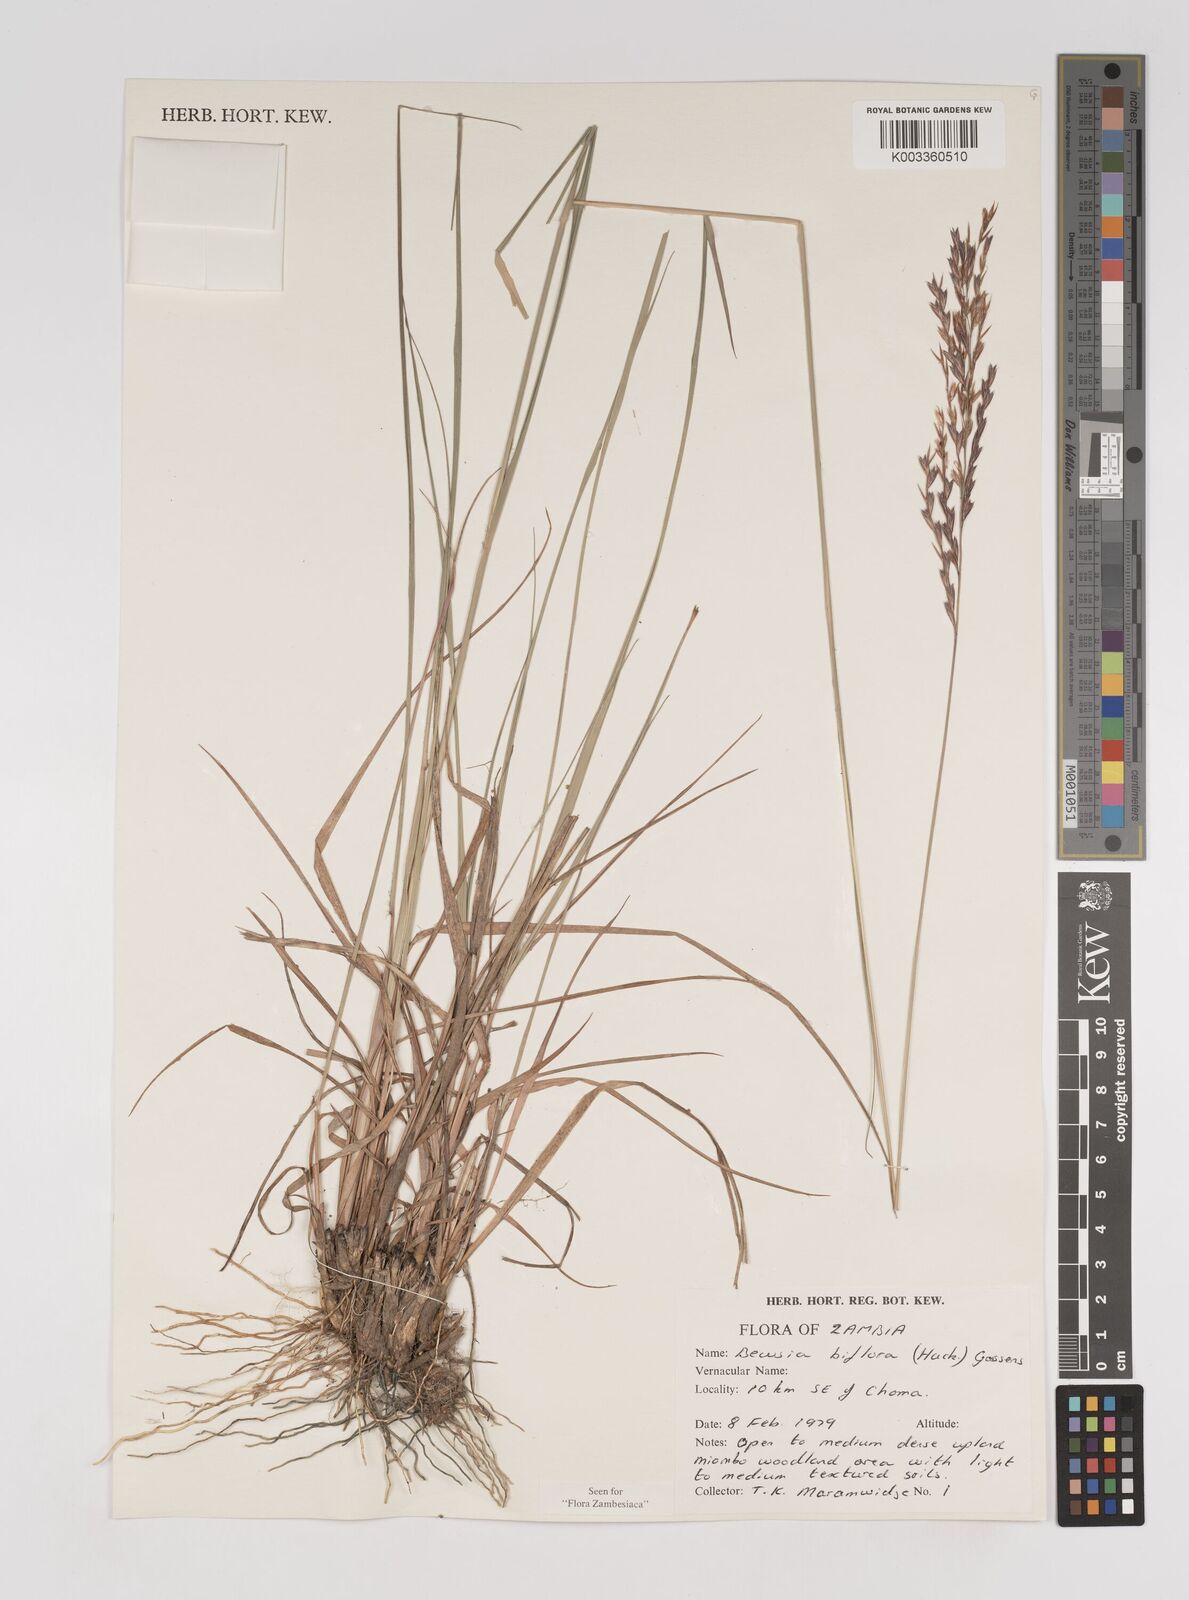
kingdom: Plantae
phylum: Tracheophyta
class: Liliopsida
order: Poales
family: Poaceae
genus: Bewsia
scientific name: Bewsia biflora
